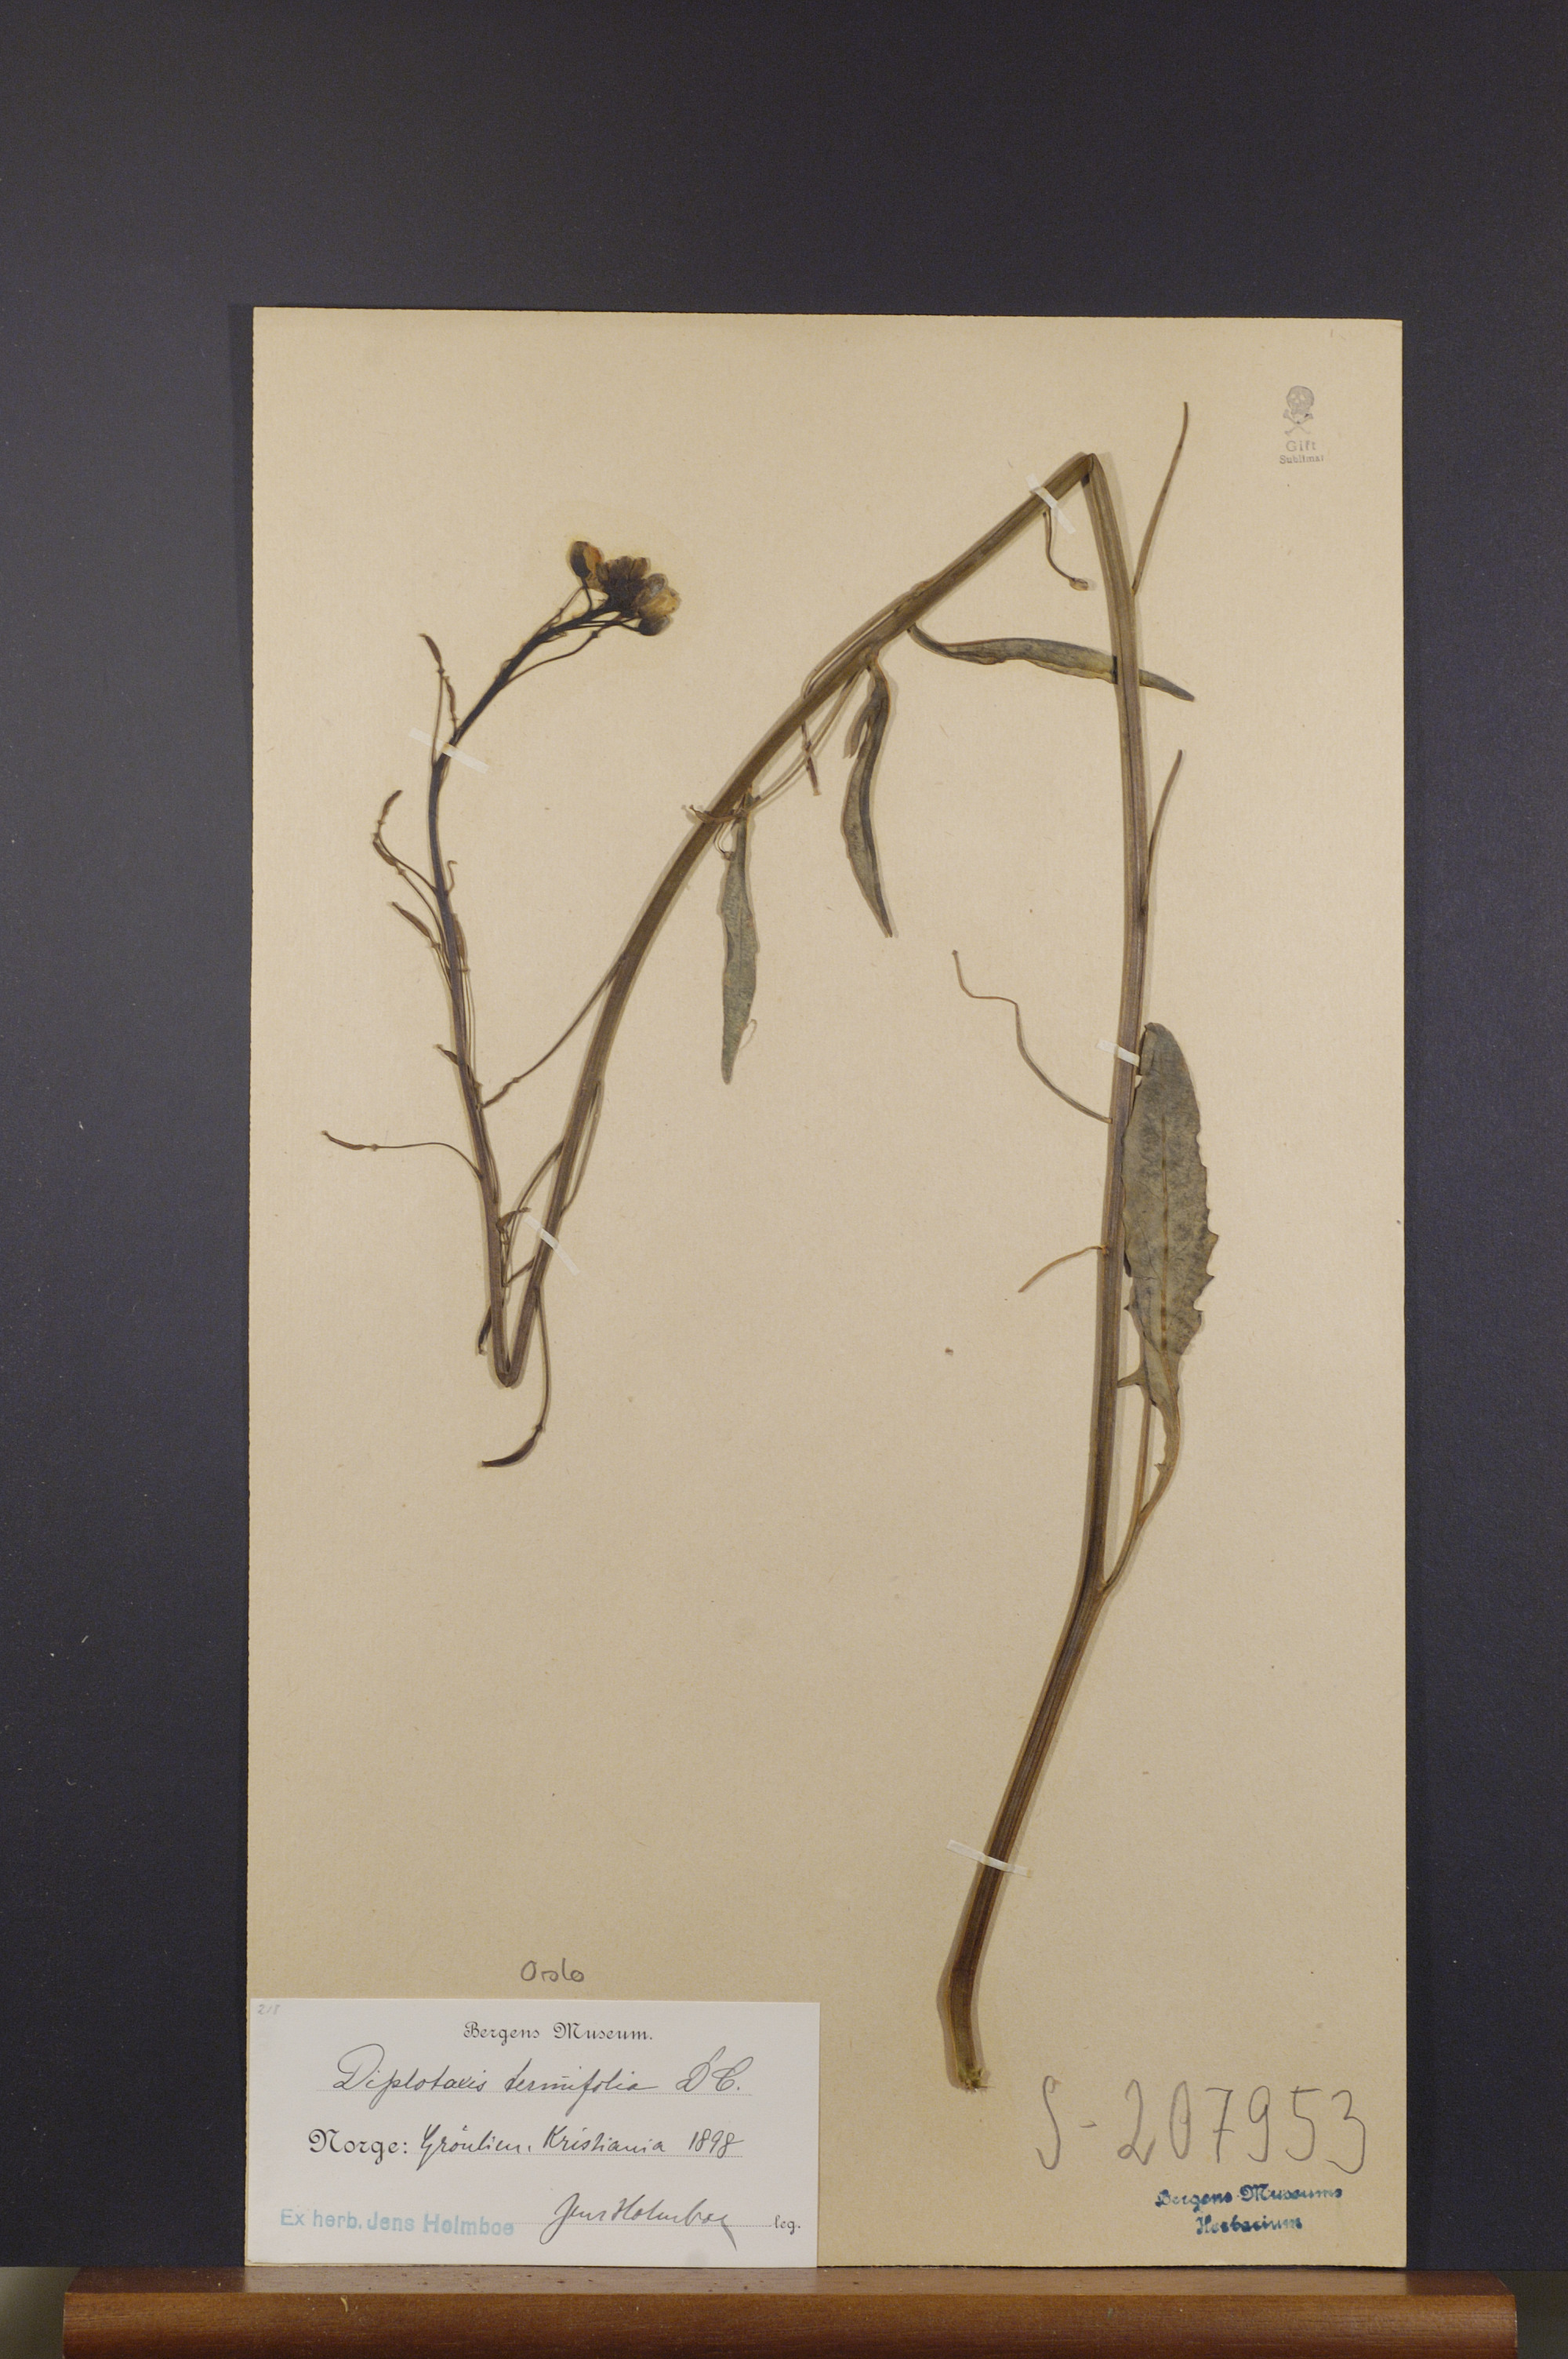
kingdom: Plantae
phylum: Tracheophyta
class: Magnoliopsida
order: Brassicales
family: Brassicaceae
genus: Diplotaxis
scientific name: Diplotaxis tenuifolia
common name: Perennial wall-rocket
